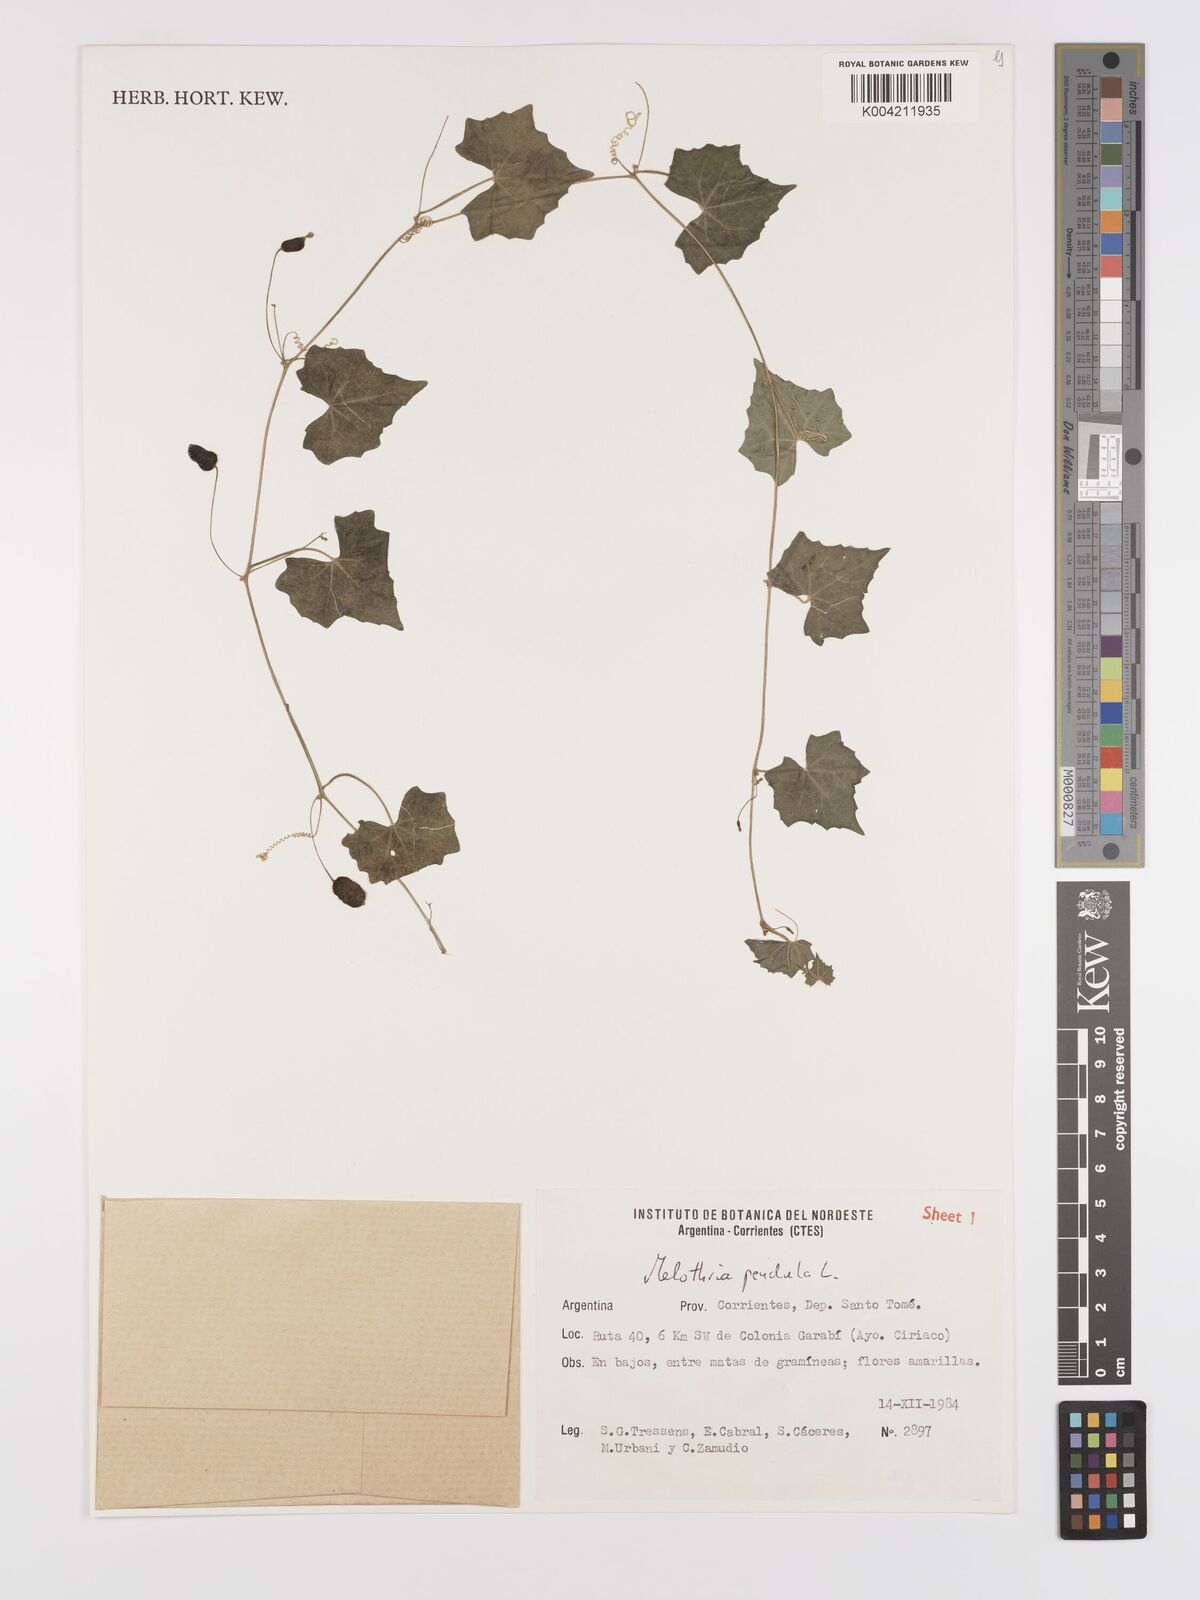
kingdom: Plantae
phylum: Tracheophyta
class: Magnoliopsida
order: Cucurbitales
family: Cucurbitaceae
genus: Melothria
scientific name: Melothria pendula
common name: Creeping-cucumber
